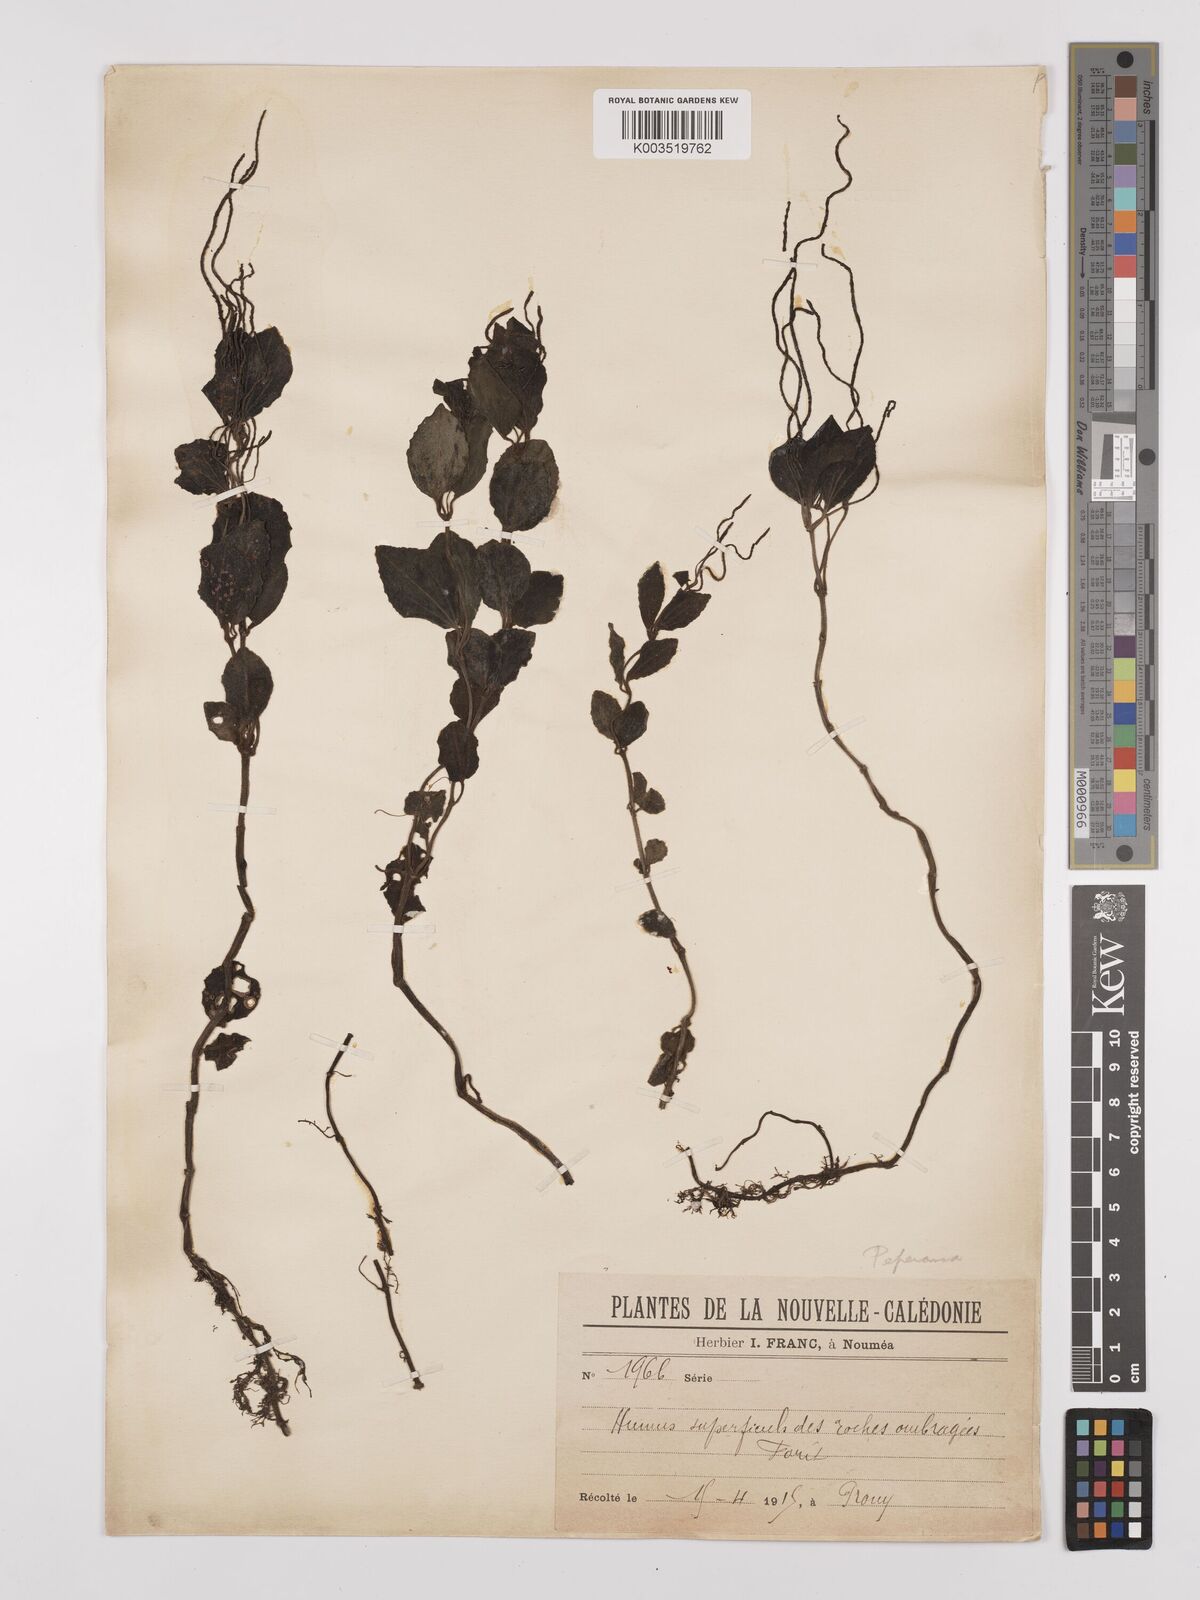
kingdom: Plantae
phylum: Tracheophyta
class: Magnoliopsida
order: Piperales
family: Piperaceae
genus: Peperomia
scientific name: Peperomia
